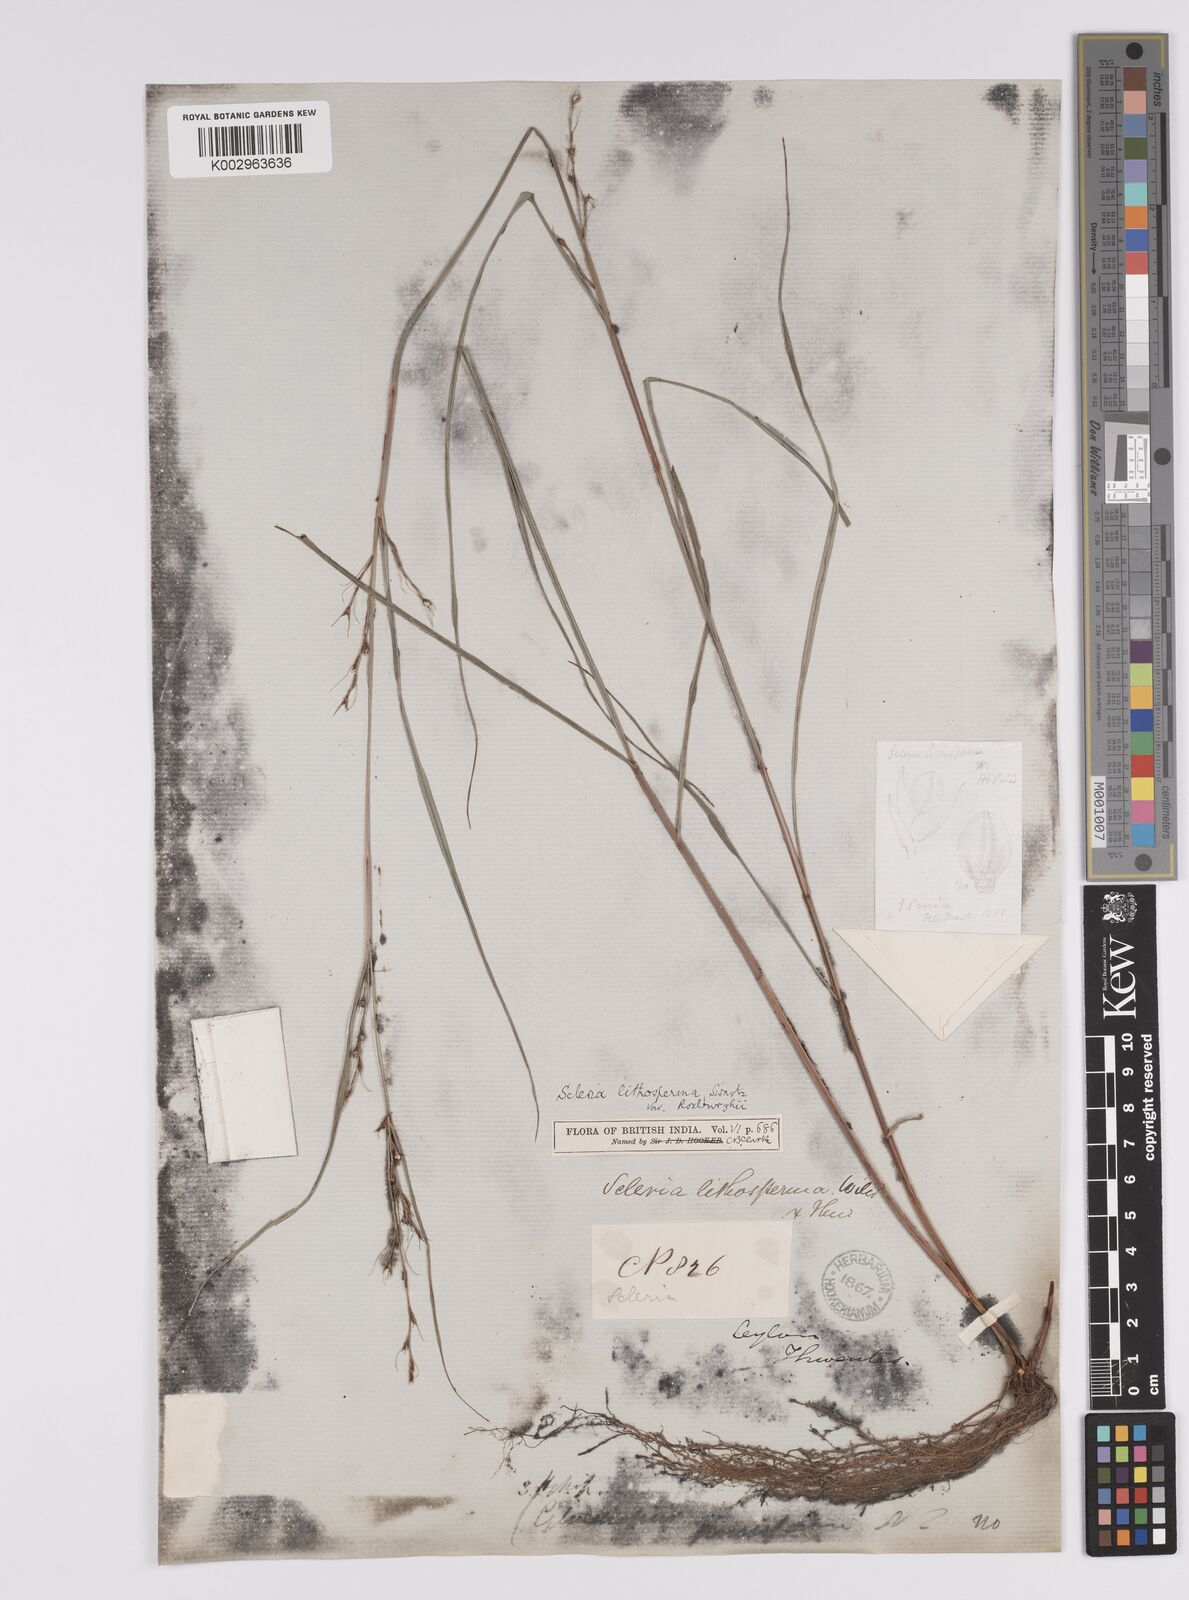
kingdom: Plantae
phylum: Tracheophyta
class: Liliopsida
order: Poales
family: Cyperaceae
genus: Scleria
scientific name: Scleria lithosperma
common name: Florida keys nut-rush
